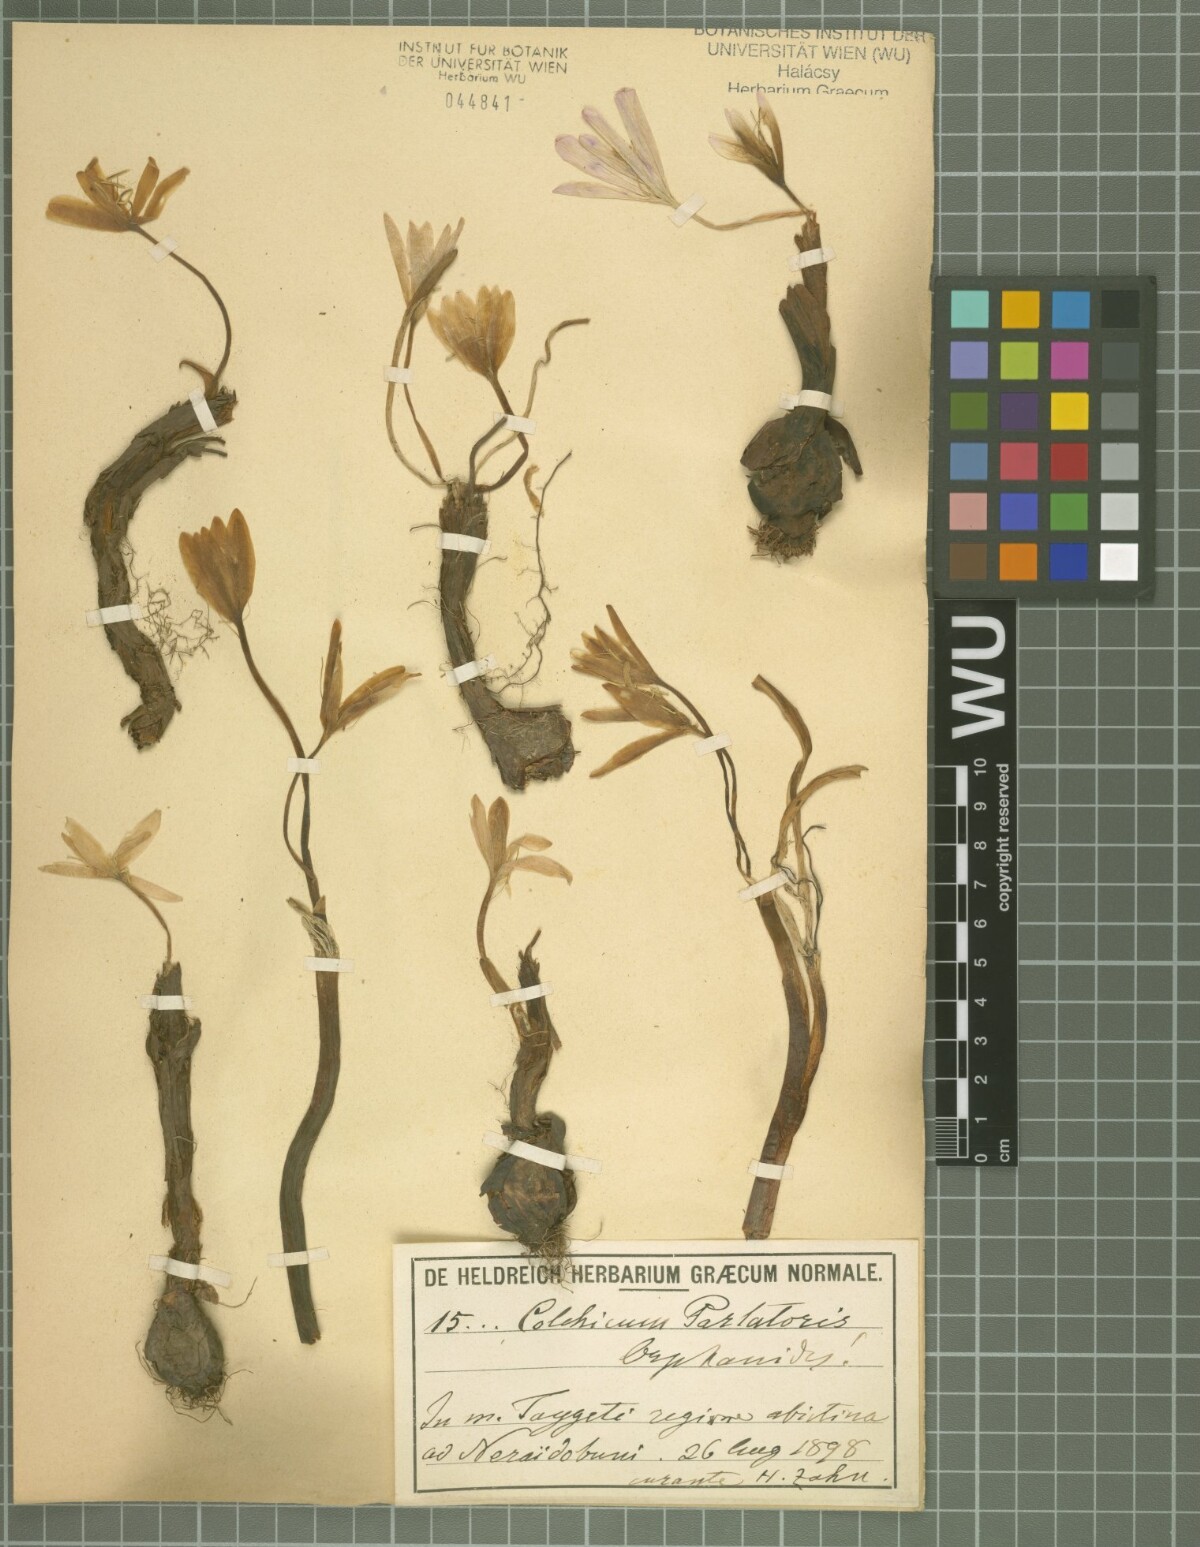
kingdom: Plantae
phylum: Tracheophyta
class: Liliopsida
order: Liliales
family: Colchicaceae
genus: Colchicum
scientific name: Colchicum parlatoris
